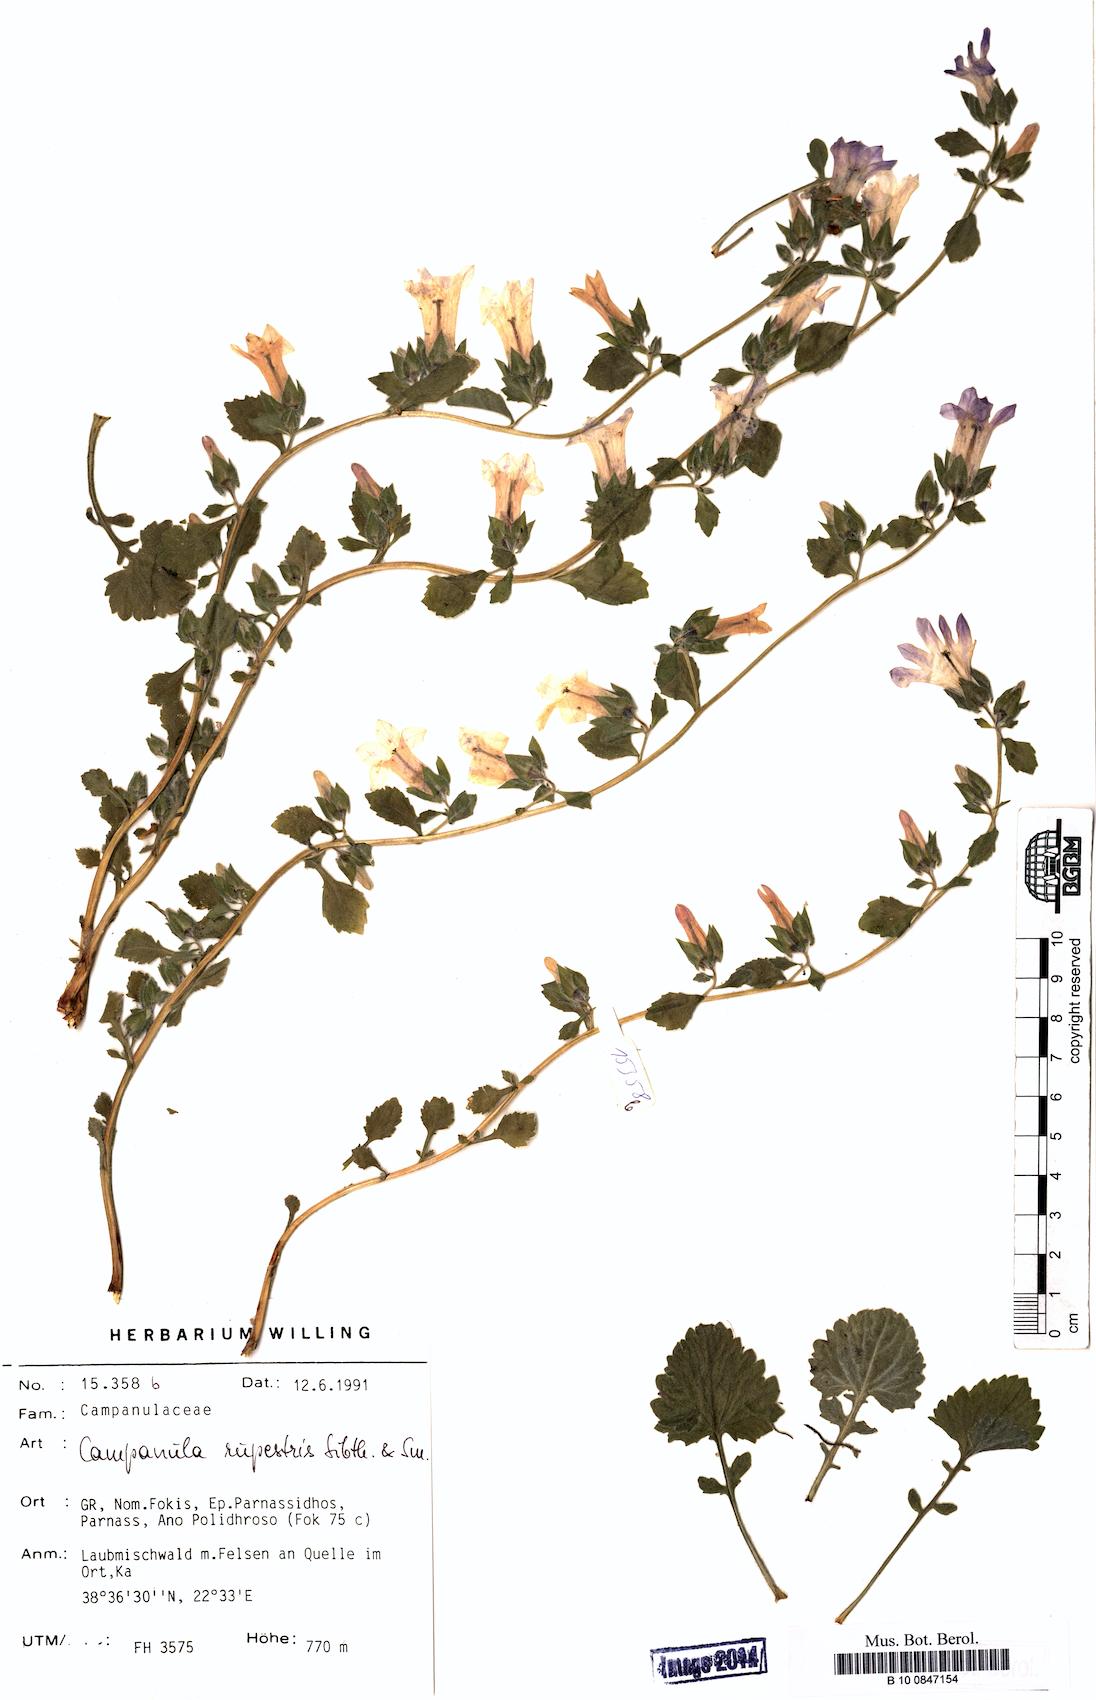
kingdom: Plantae
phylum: Tracheophyta
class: Magnoliopsida
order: Asterales
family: Campanulaceae
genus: Campanula
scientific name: Campanula rupestris
